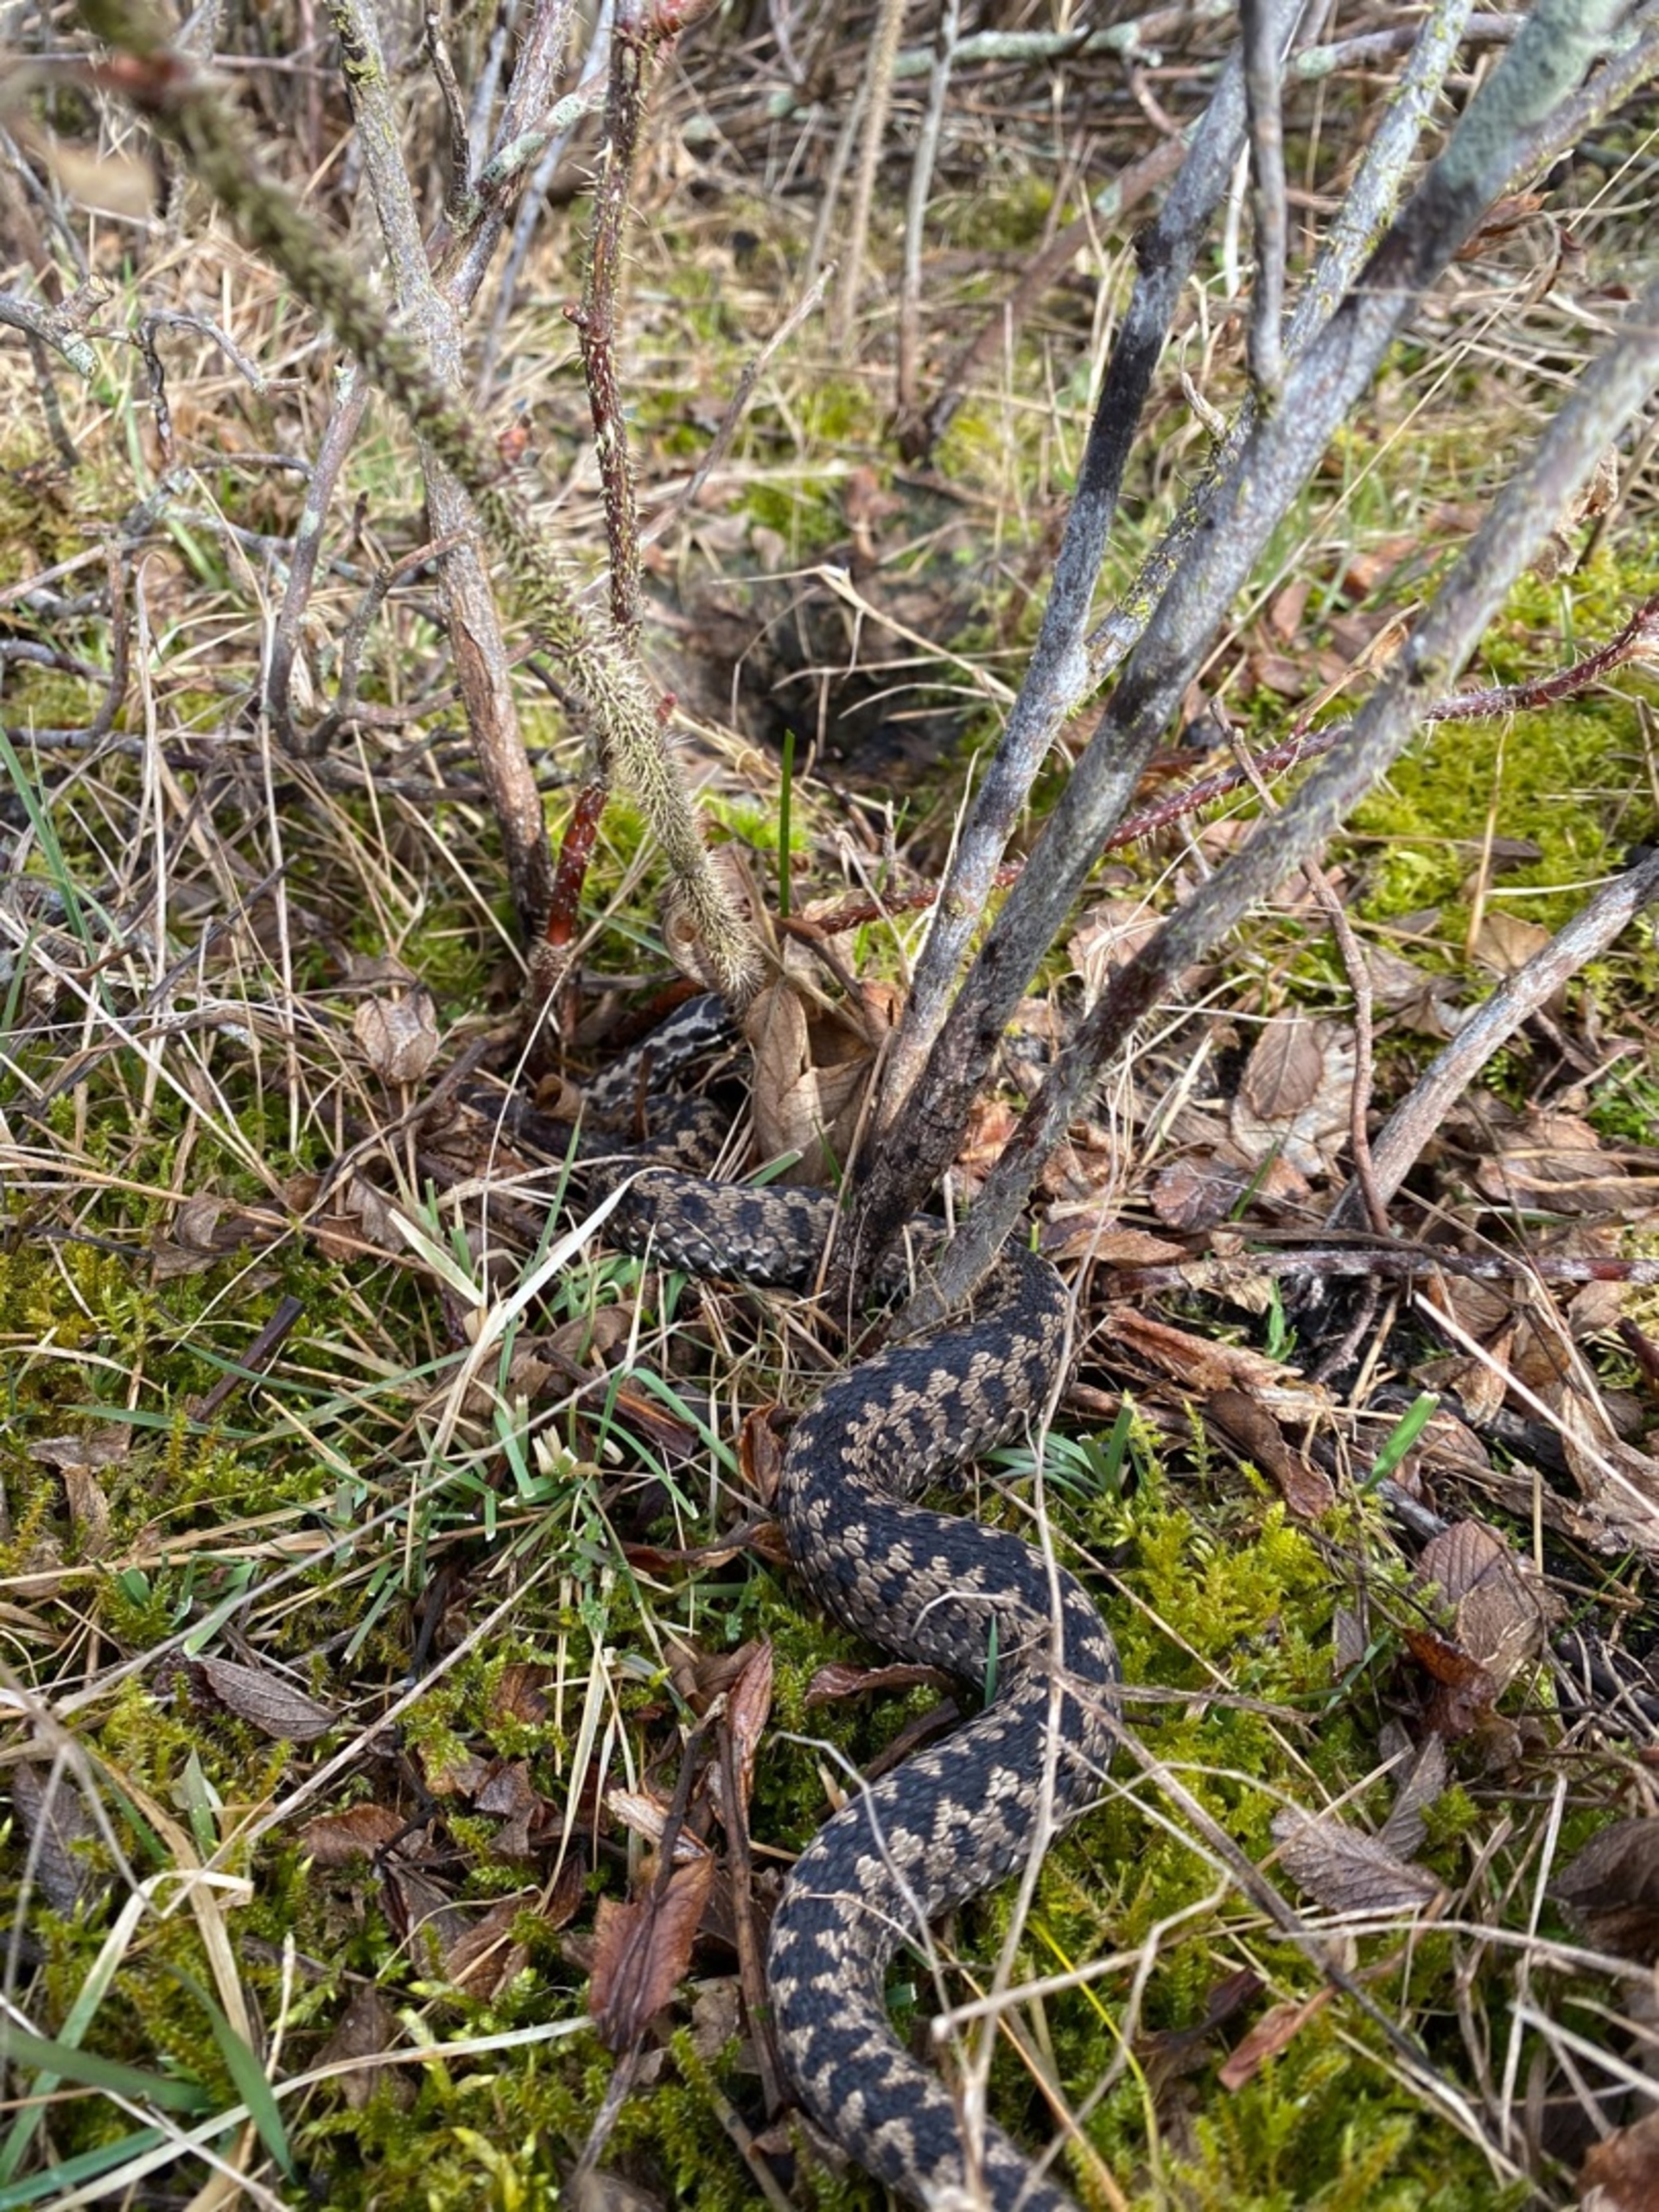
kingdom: Animalia
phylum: Chordata
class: Squamata
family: Viperidae
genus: Vipera
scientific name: Vipera berus
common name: Hugorm
